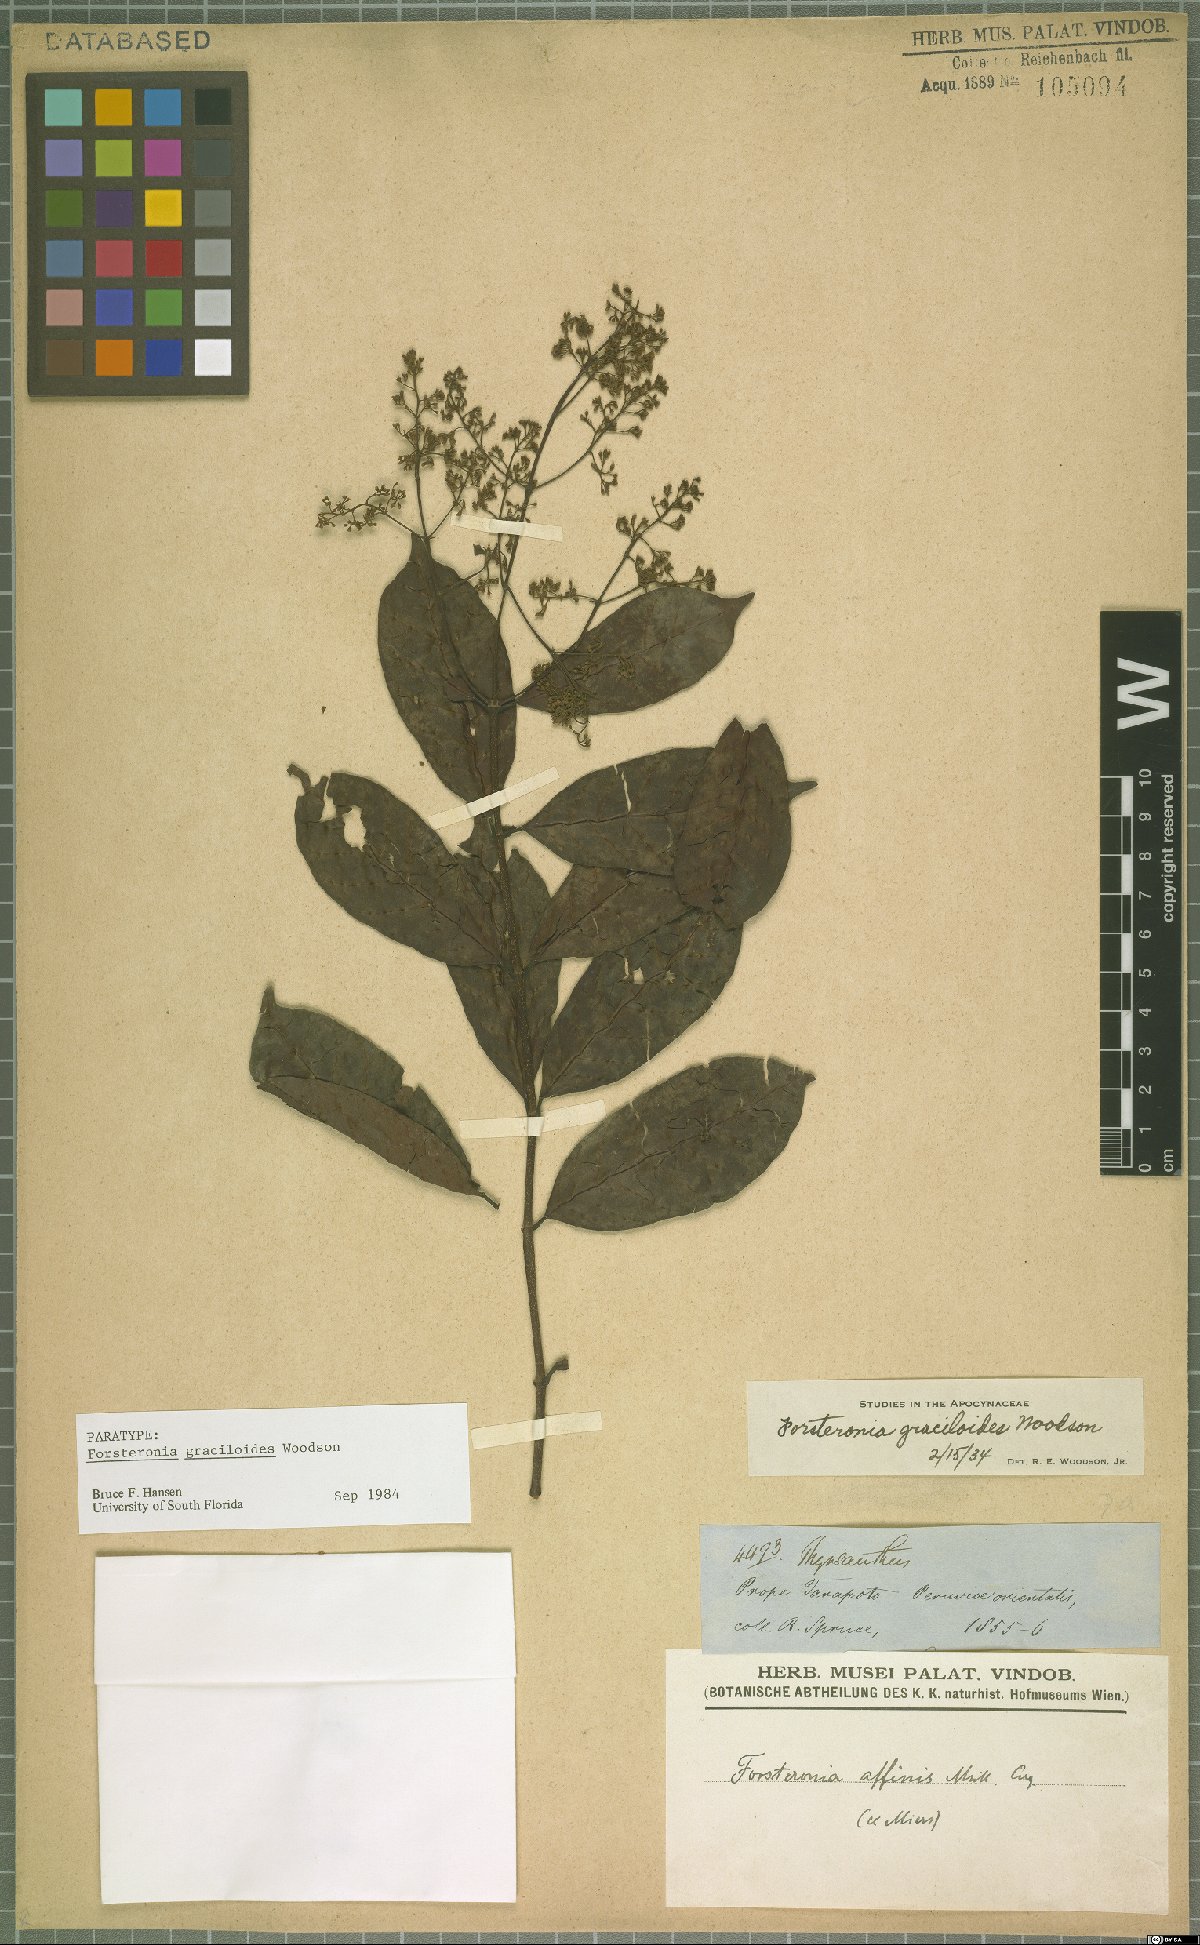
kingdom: Plantae
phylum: Tracheophyta
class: Magnoliopsida
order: Gentianales
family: Apocynaceae
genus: Forsteronia
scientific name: Forsteronia graciloides
